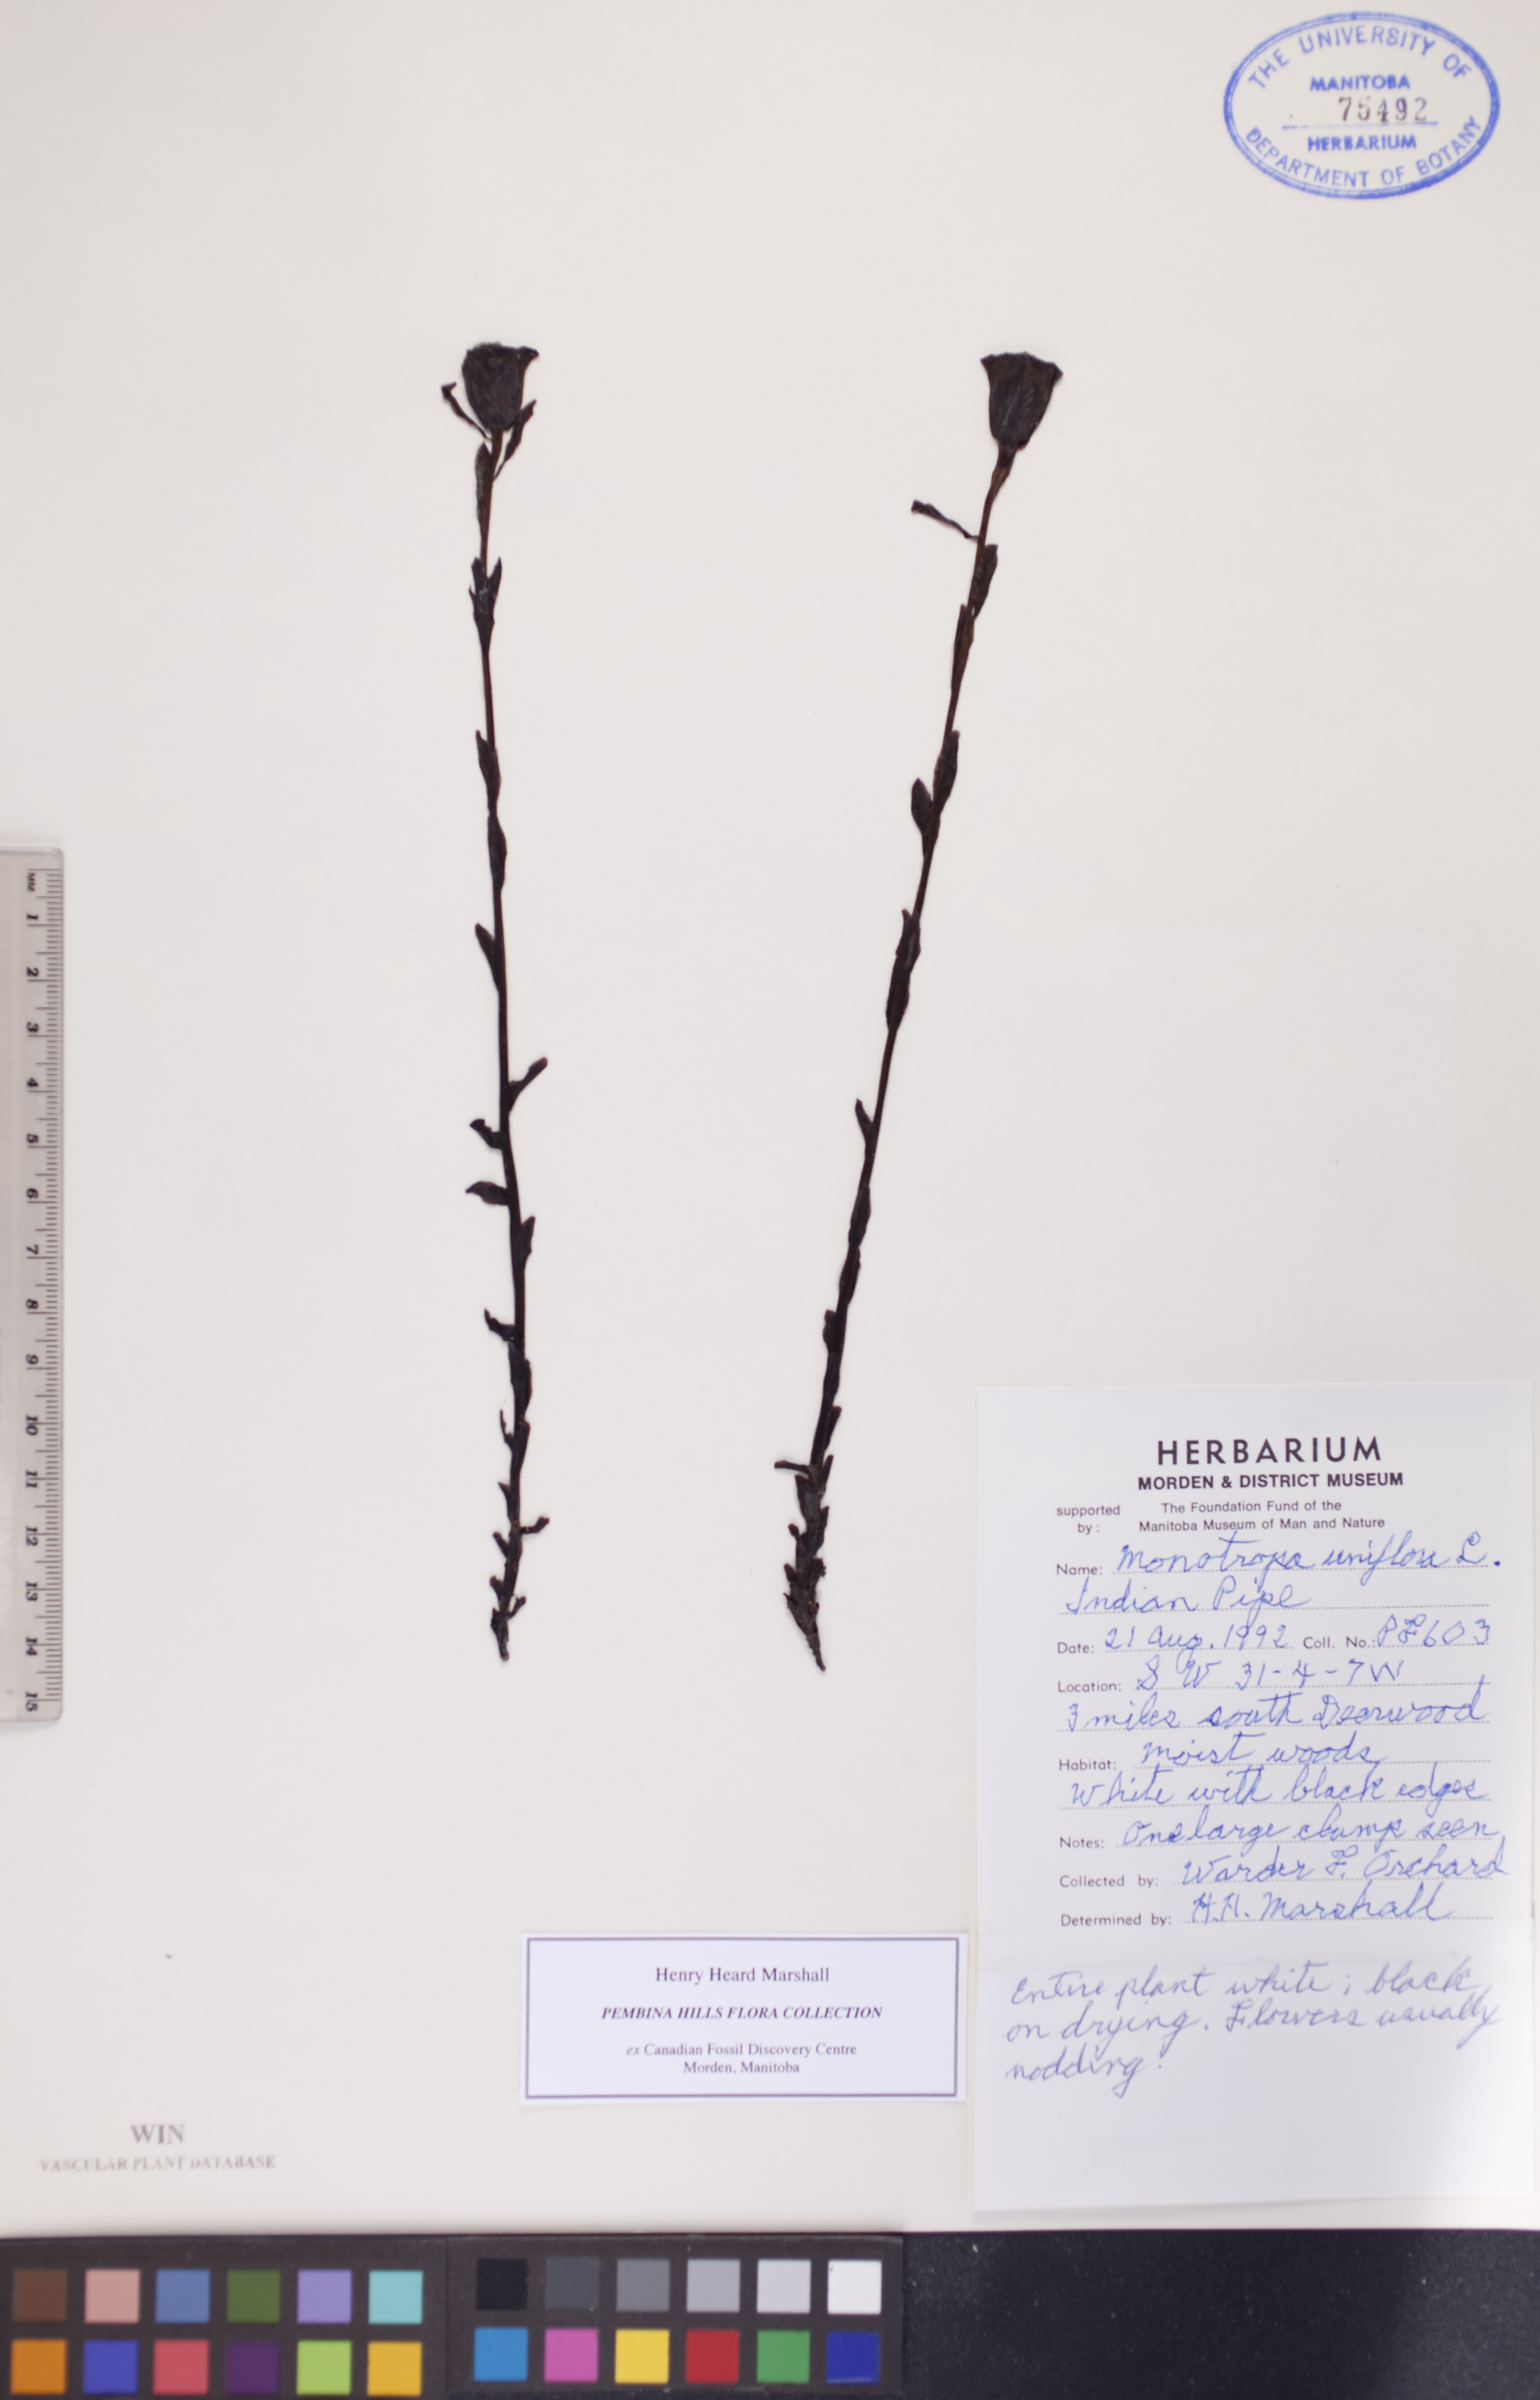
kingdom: Plantae
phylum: Tracheophyta
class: Magnoliopsida
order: Ericales
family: Ericaceae
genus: Monotropa
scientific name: Monotropa uniflora
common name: Convulsion root
